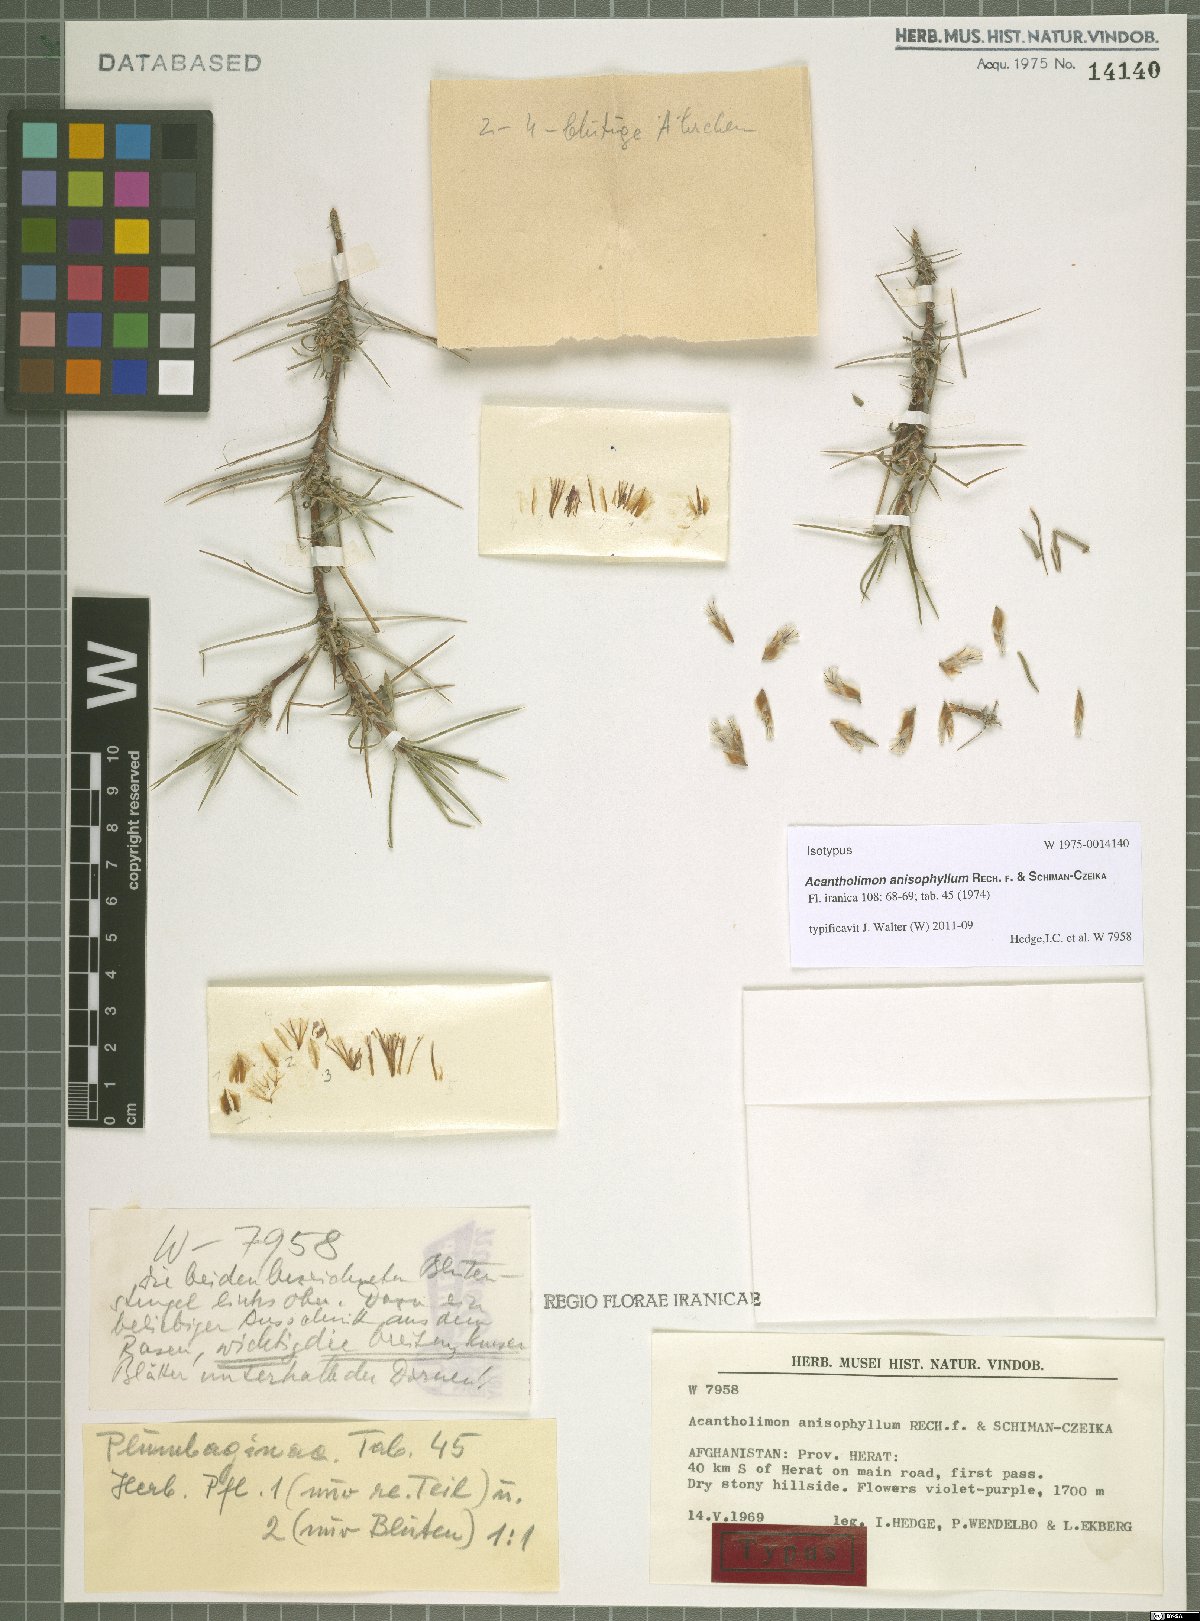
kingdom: Plantae
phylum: Tracheophyta
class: Magnoliopsida
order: Caryophyllales
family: Plumbaginaceae
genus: Acantholimon
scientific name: Acantholimon anisophyllum
